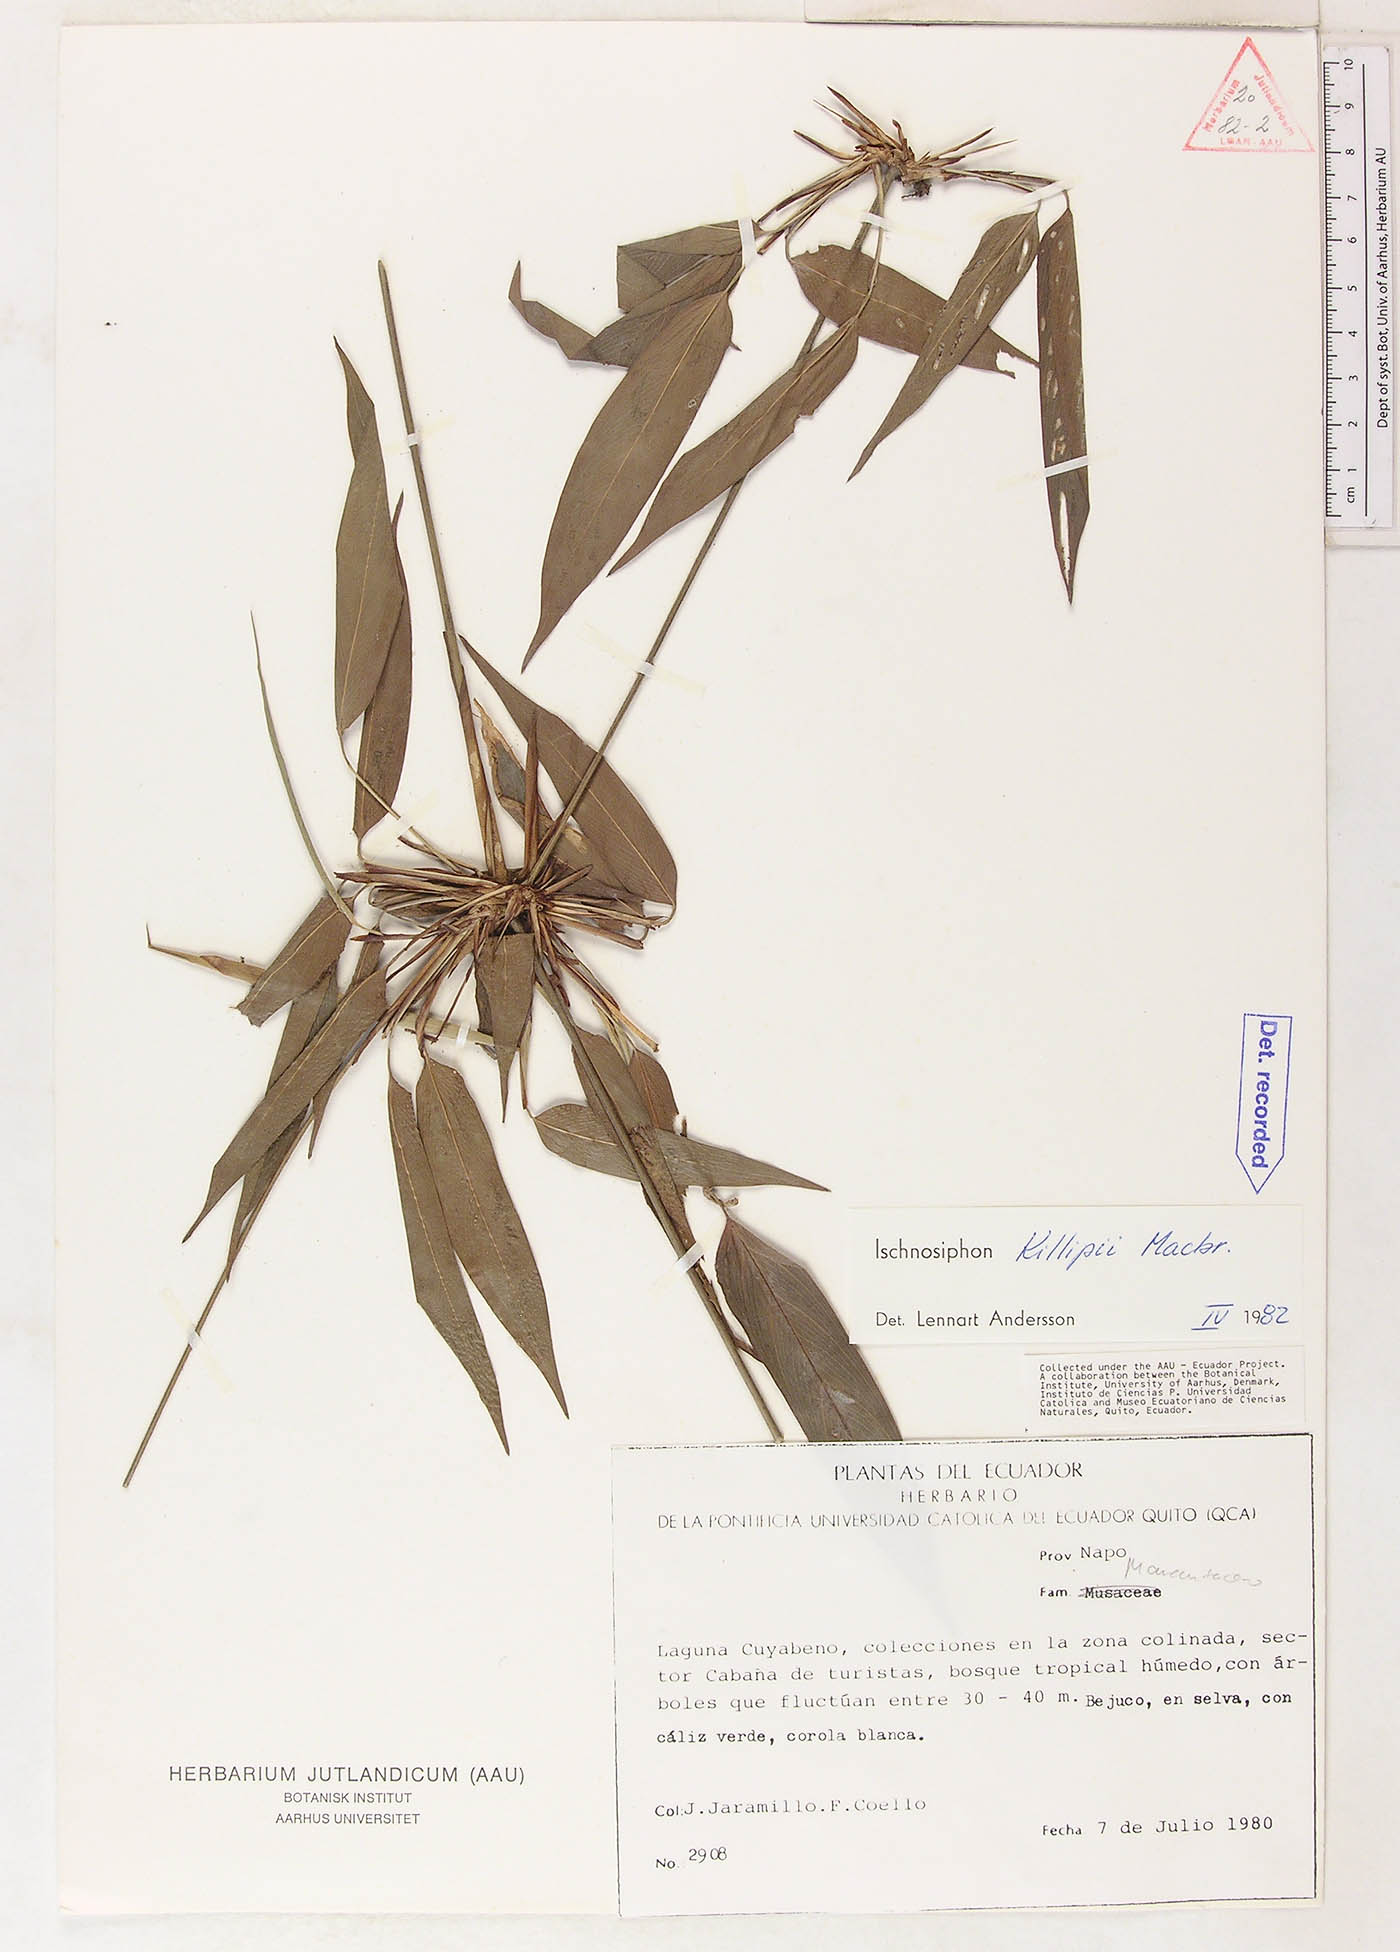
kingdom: Plantae
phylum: Tracheophyta
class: Liliopsida
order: Zingiberales
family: Marantaceae
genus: Ischnosiphon
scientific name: Ischnosiphon killipii
